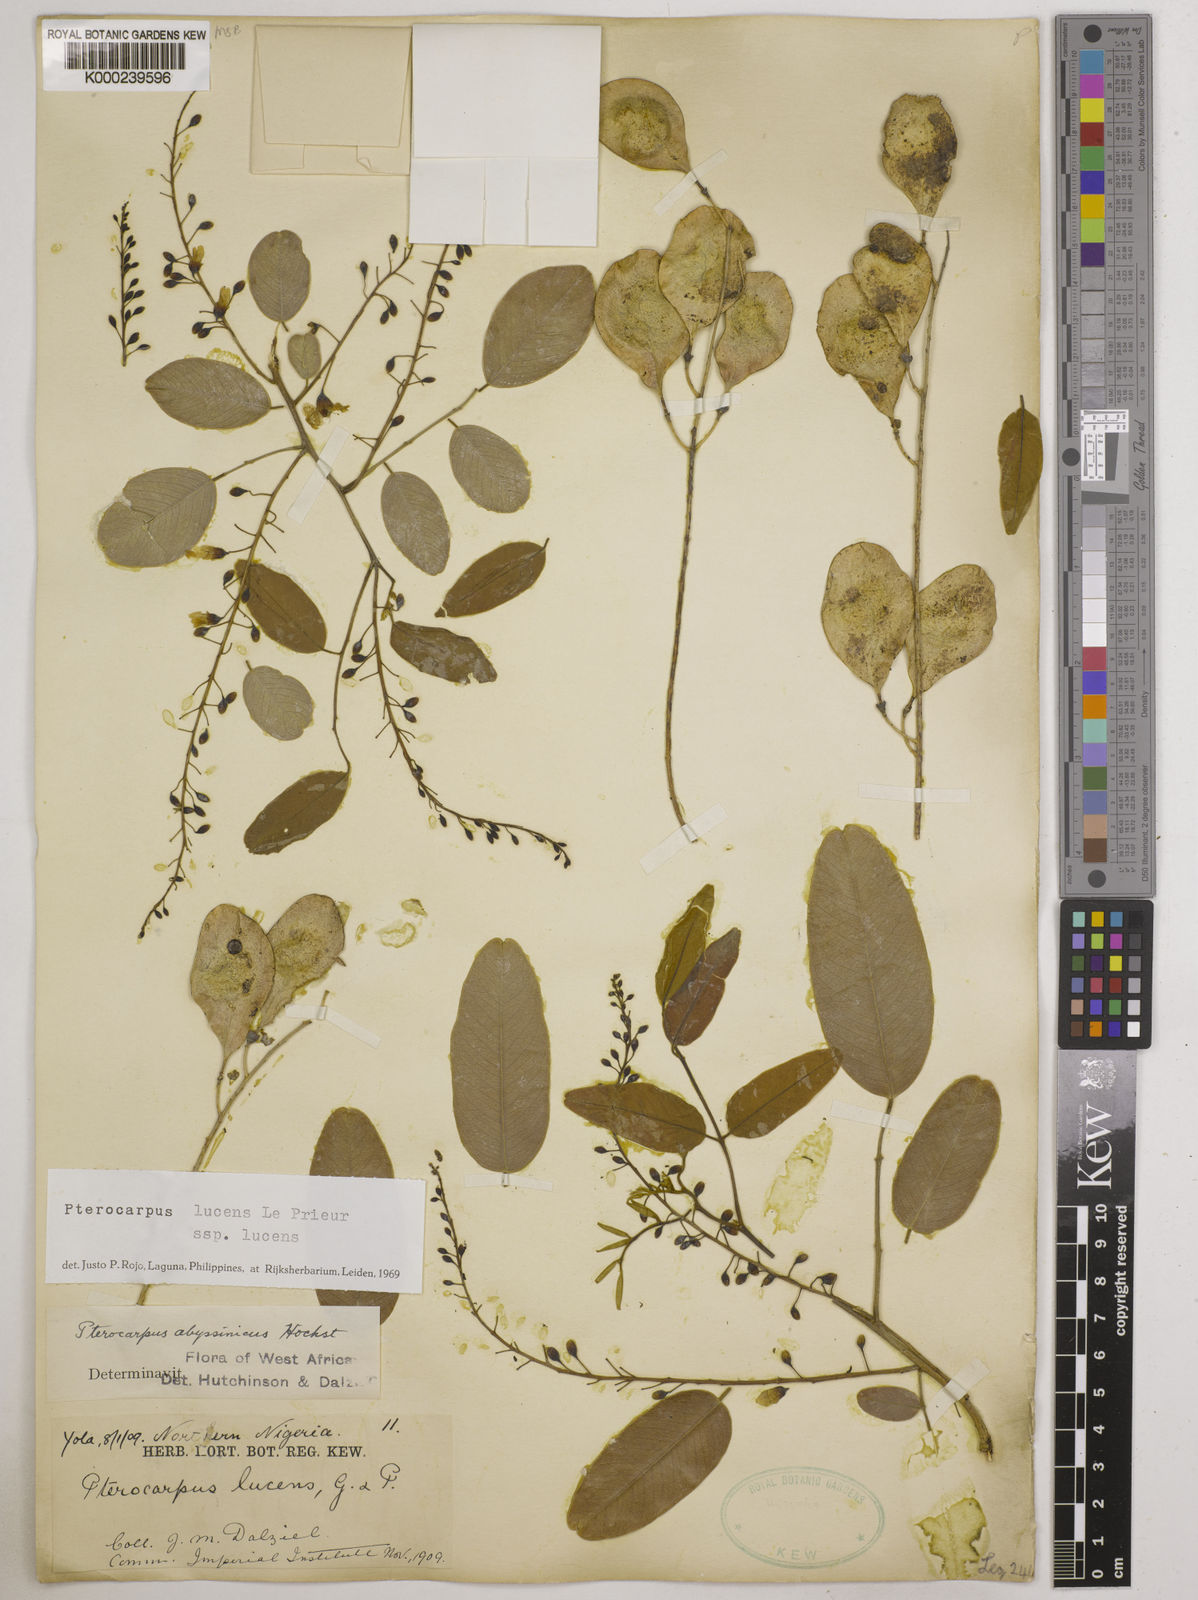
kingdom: Plantae
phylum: Tracheophyta
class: Magnoliopsida
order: Fabales
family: Fabaceae
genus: Pterocarpus
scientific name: Pterocarpus lucens
